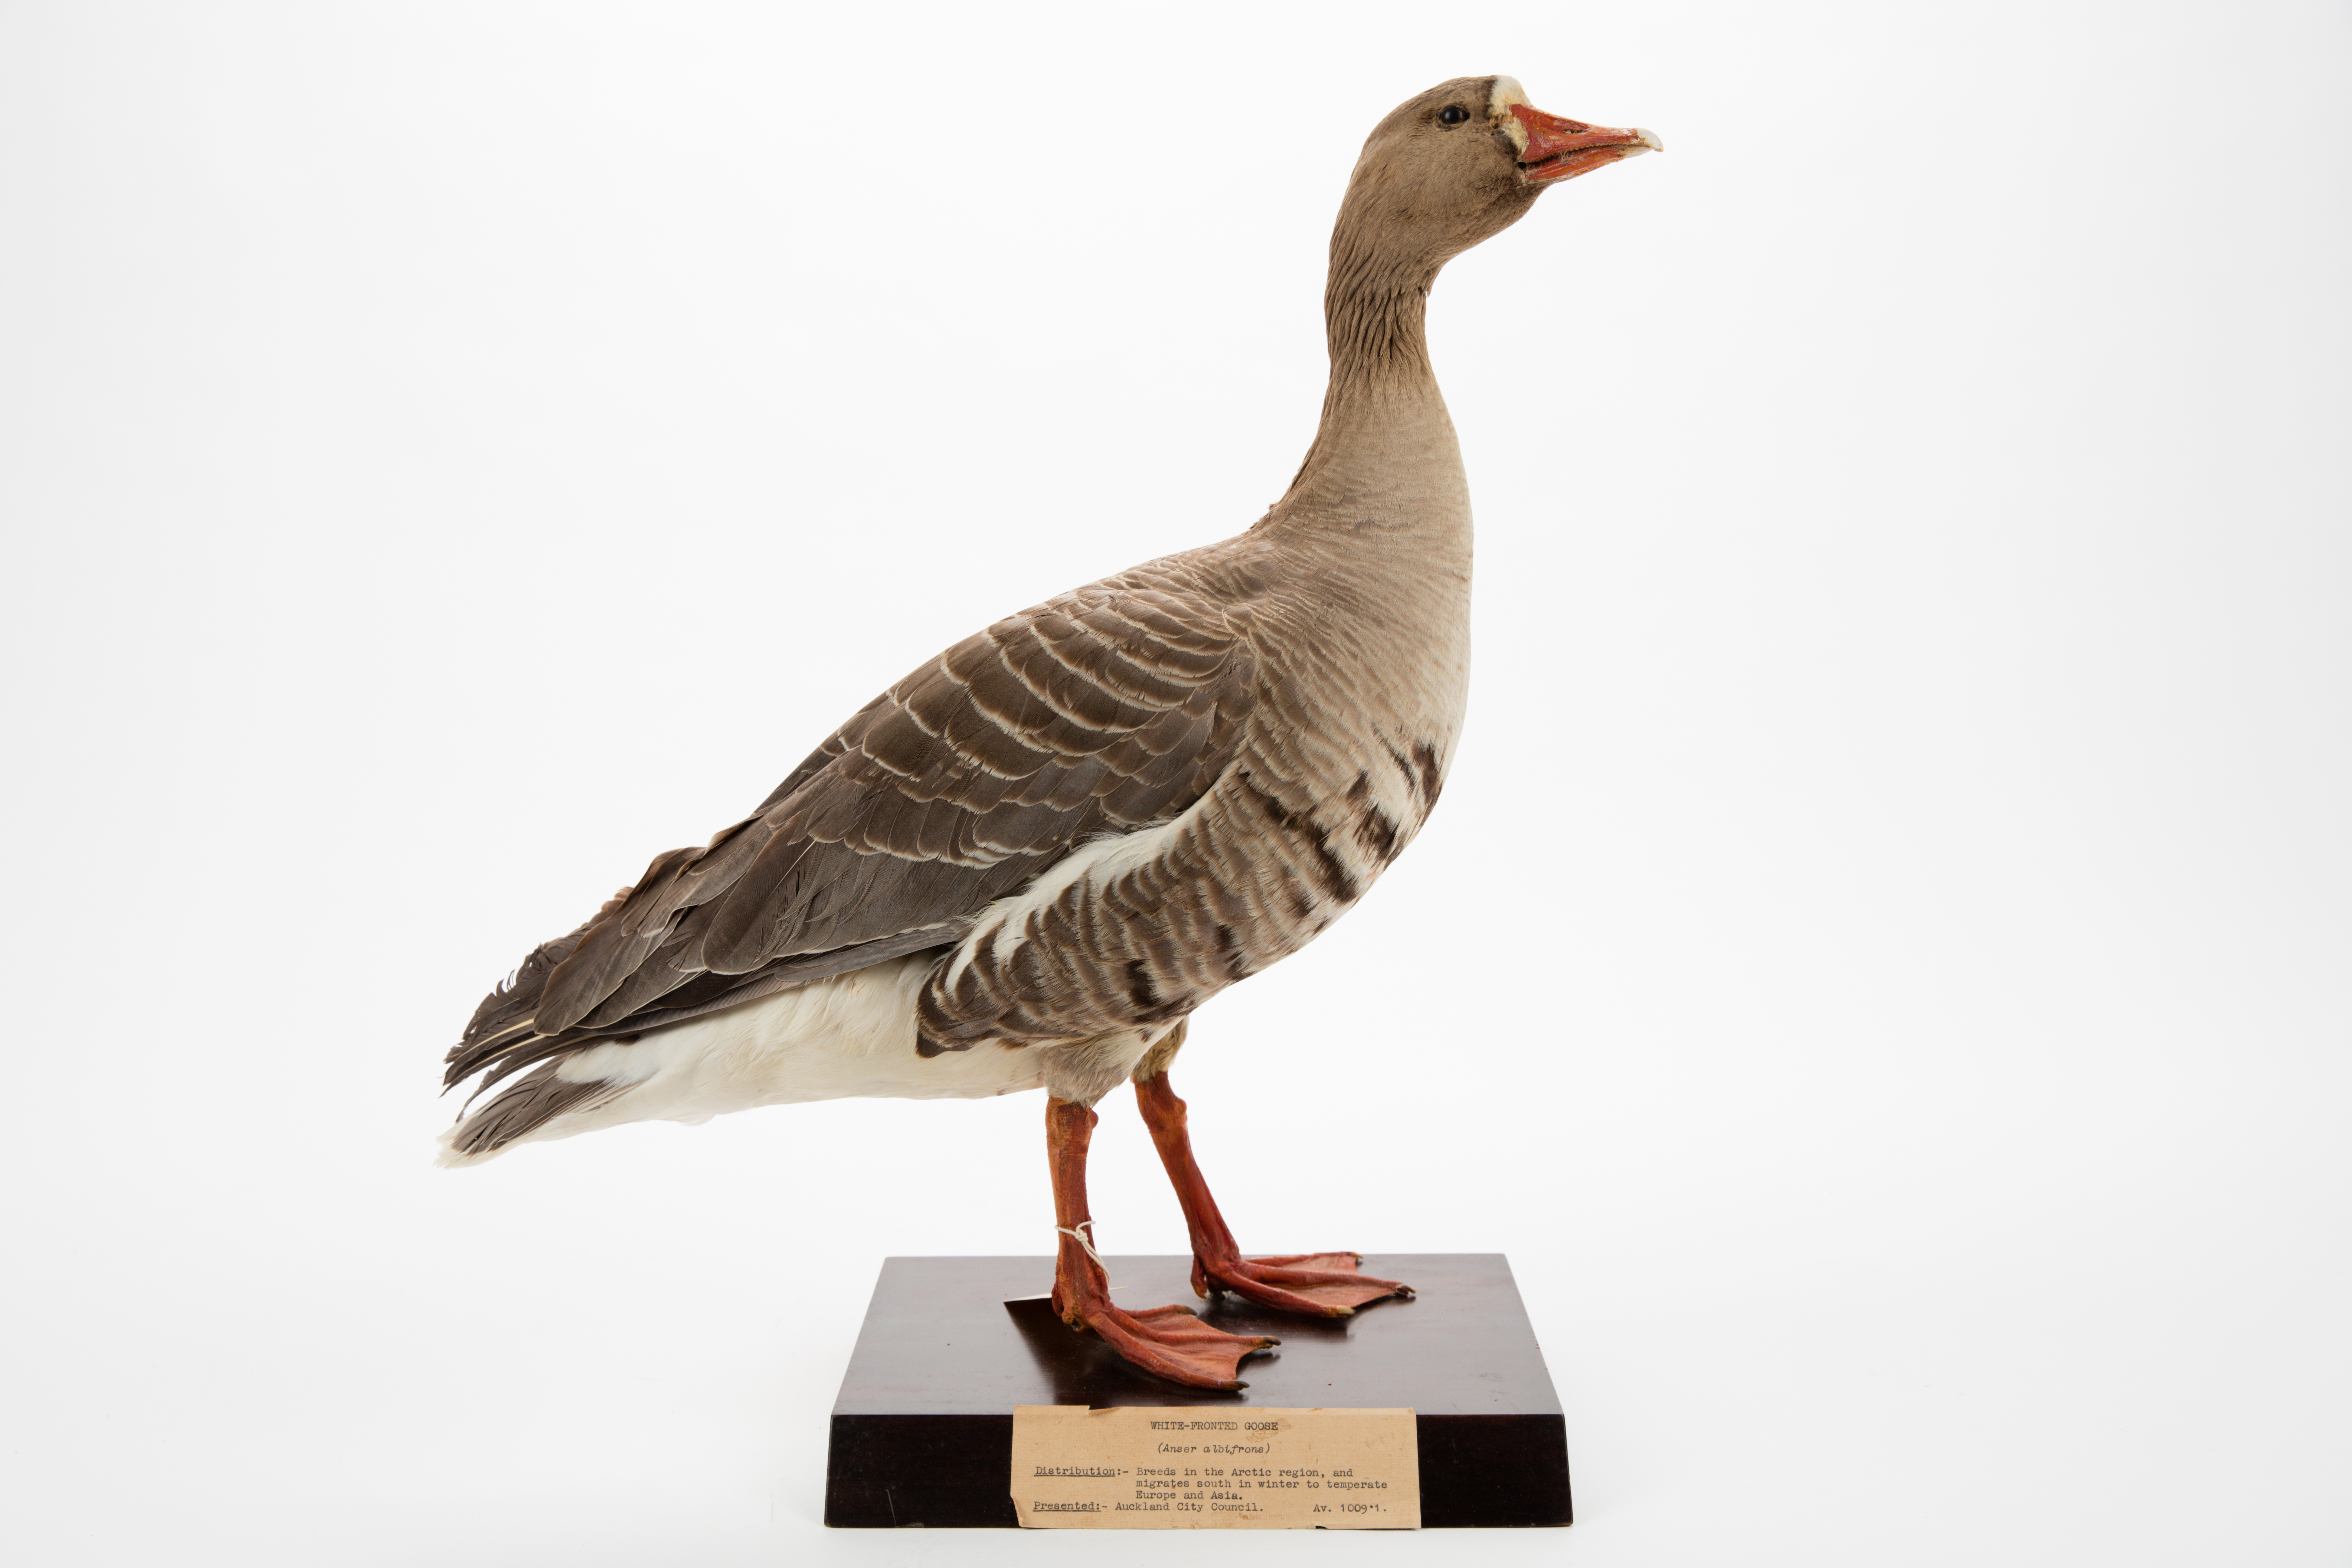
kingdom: Animalia
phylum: Chordata
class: Aves
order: Anseriformes
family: Anatidae
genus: Anser
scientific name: Anser albifrons
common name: Greater white-fronted goose
